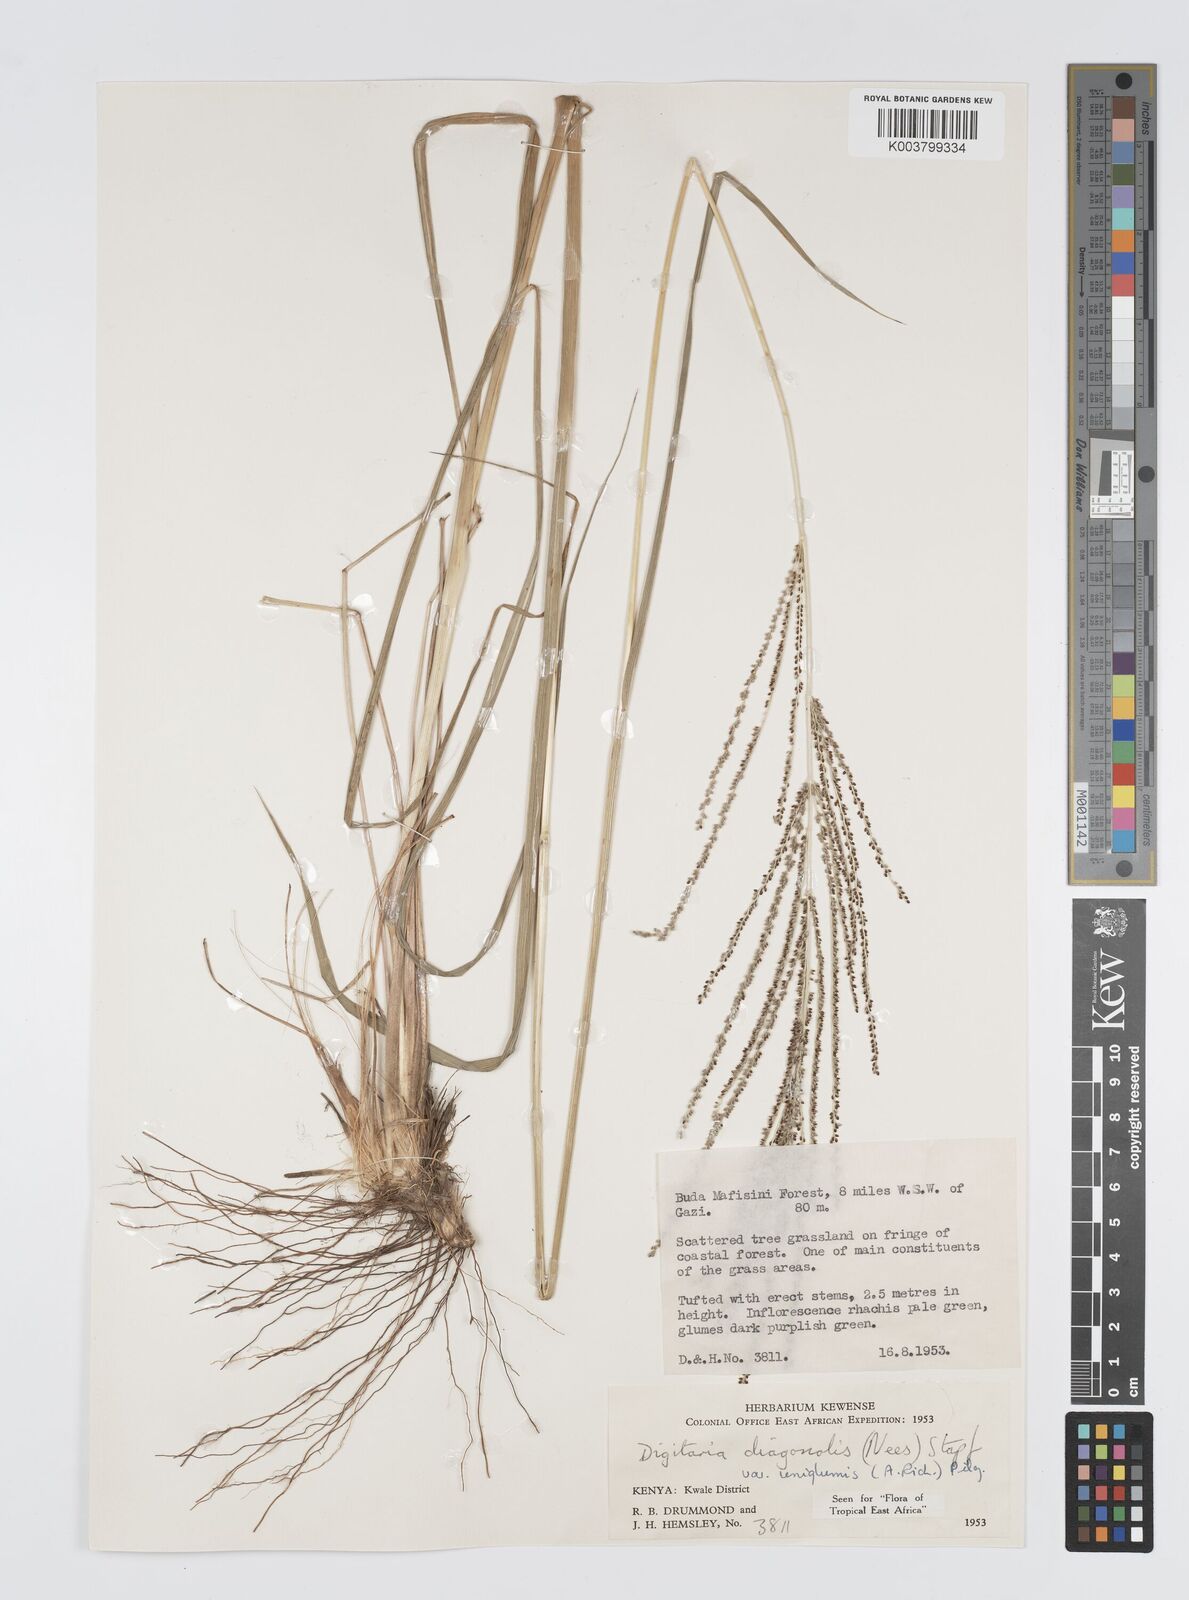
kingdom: Plantae
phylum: Tracheophyta
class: Liliopsida
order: Poales
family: Poaceae
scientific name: Poaceae
